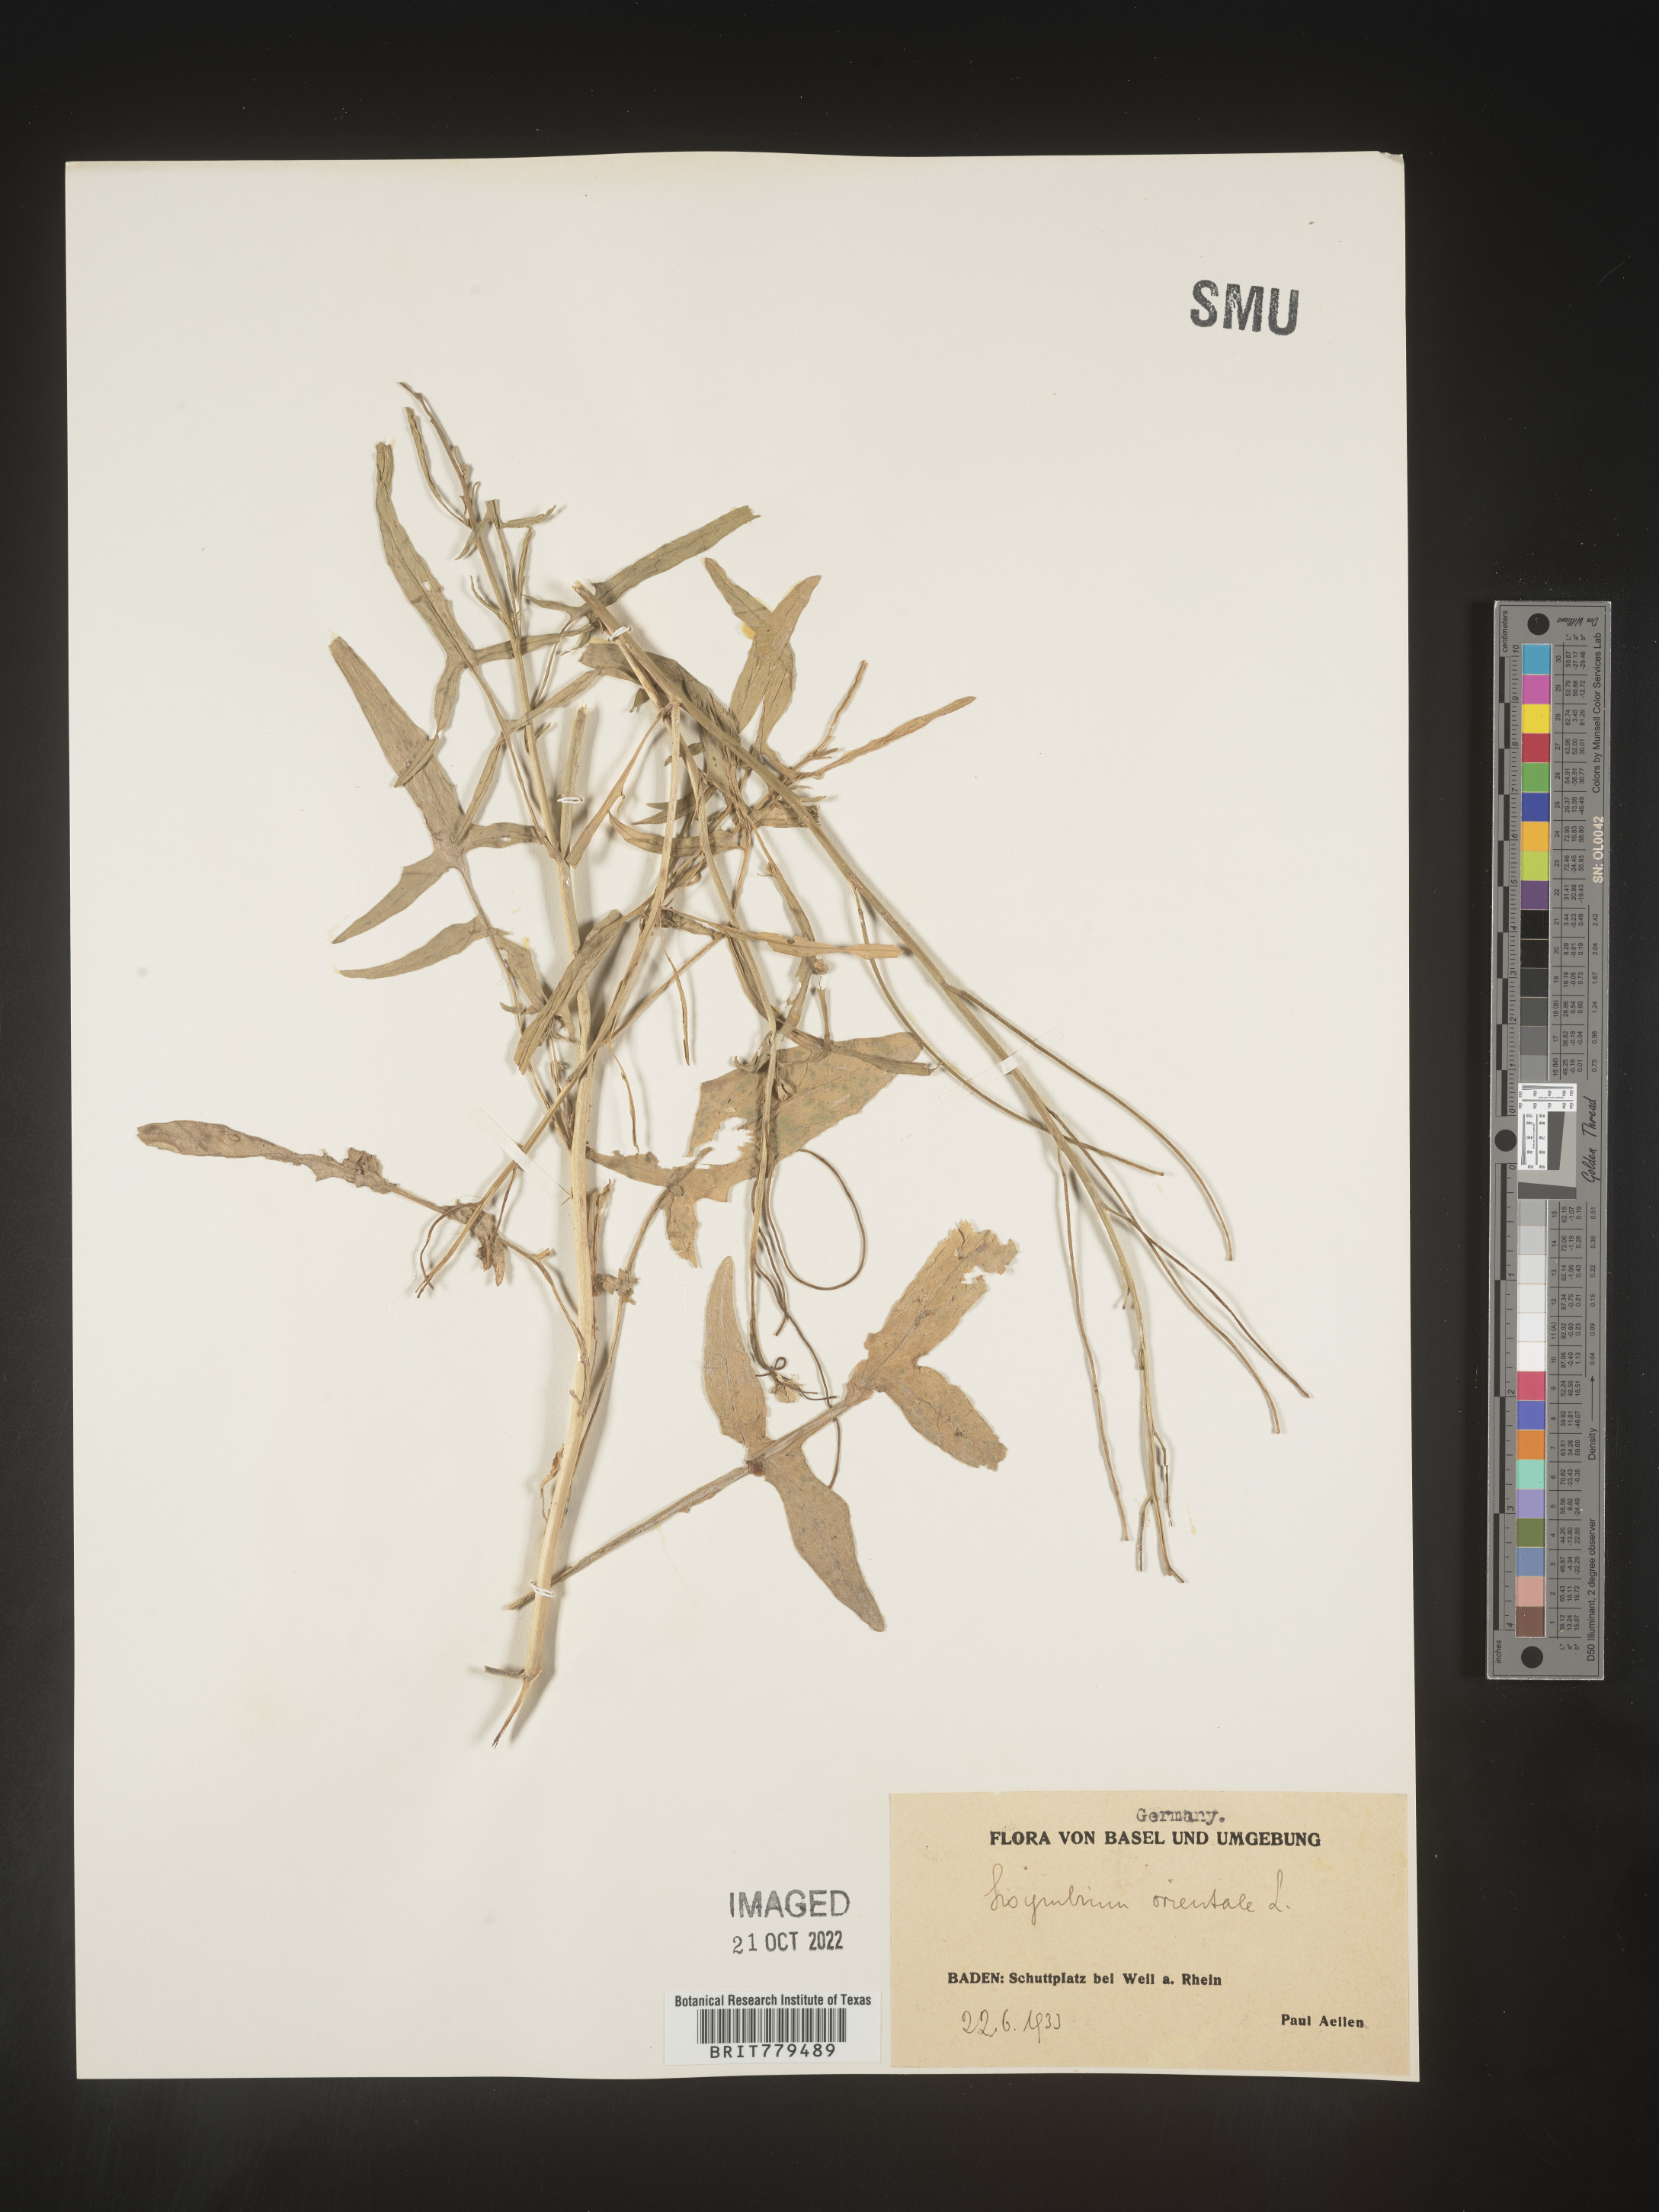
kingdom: Plantae
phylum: Tracheophyta
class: Magnoliopsida
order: Brassicales
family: Brassicaceae
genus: Sisymbrium
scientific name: Sisymbrium
